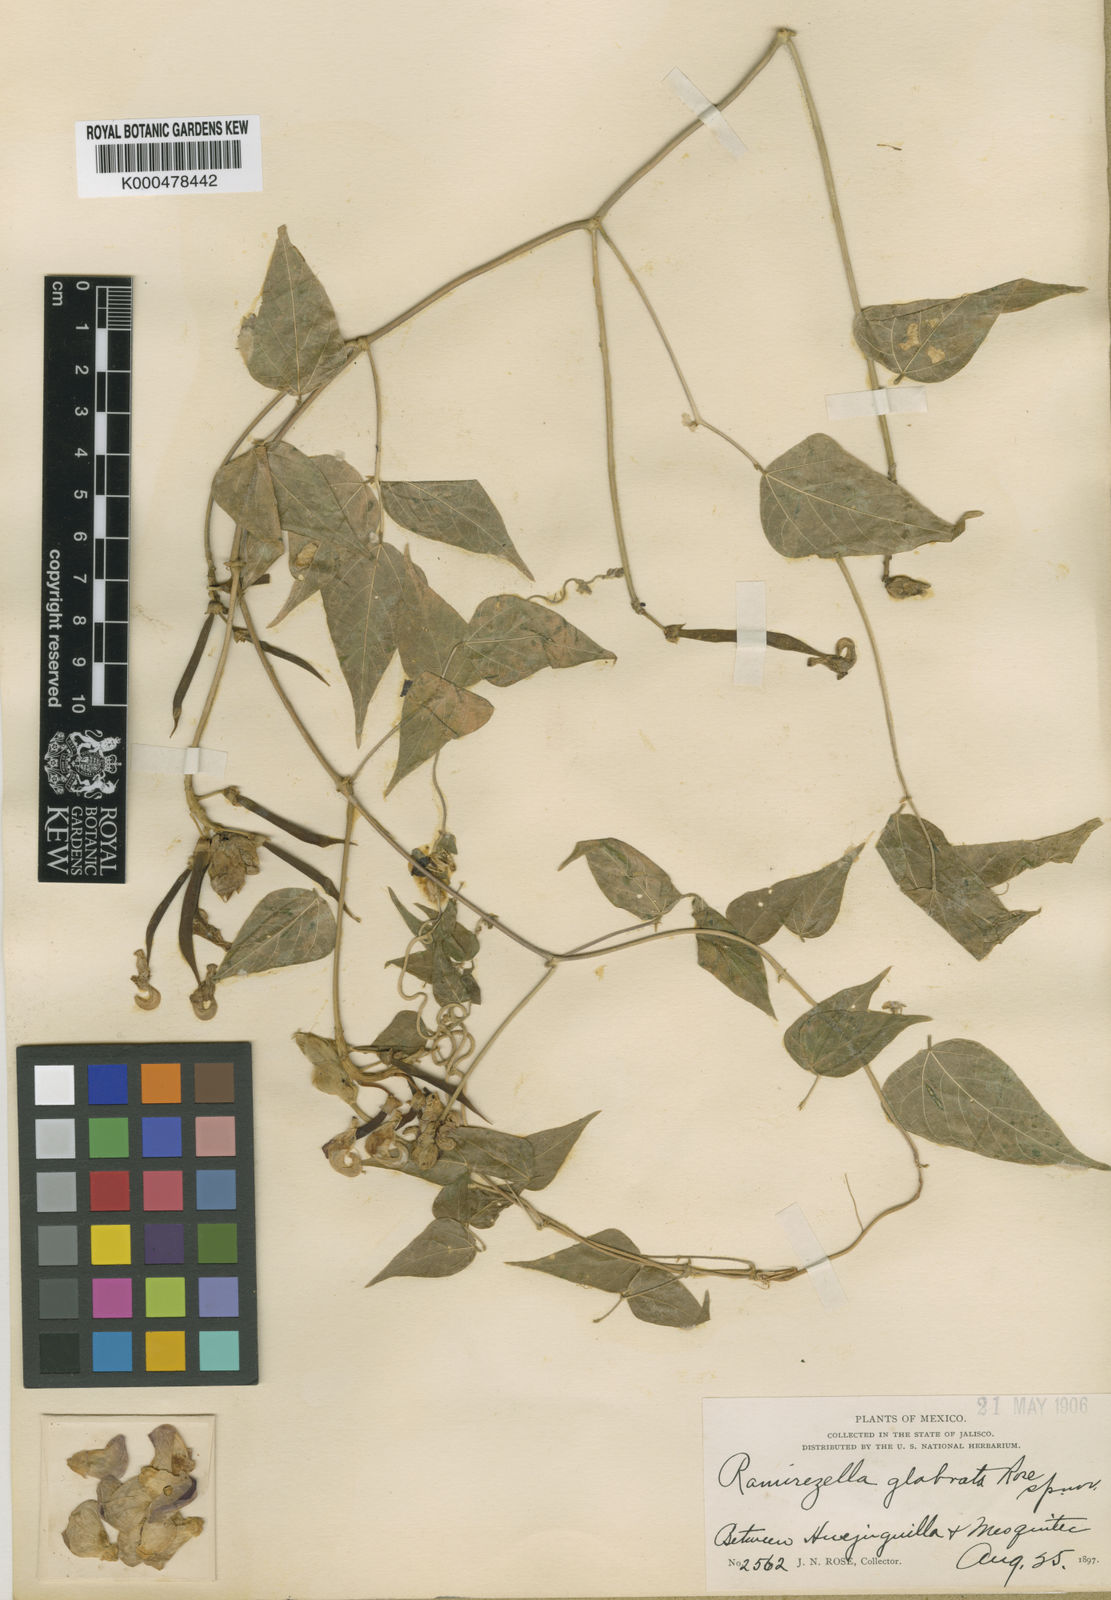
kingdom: Plantae
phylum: Tracheophyta
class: Magnoliopsida
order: Fabales
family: Fabaceae
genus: Ramirezella
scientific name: Ramirezella strobilophora
